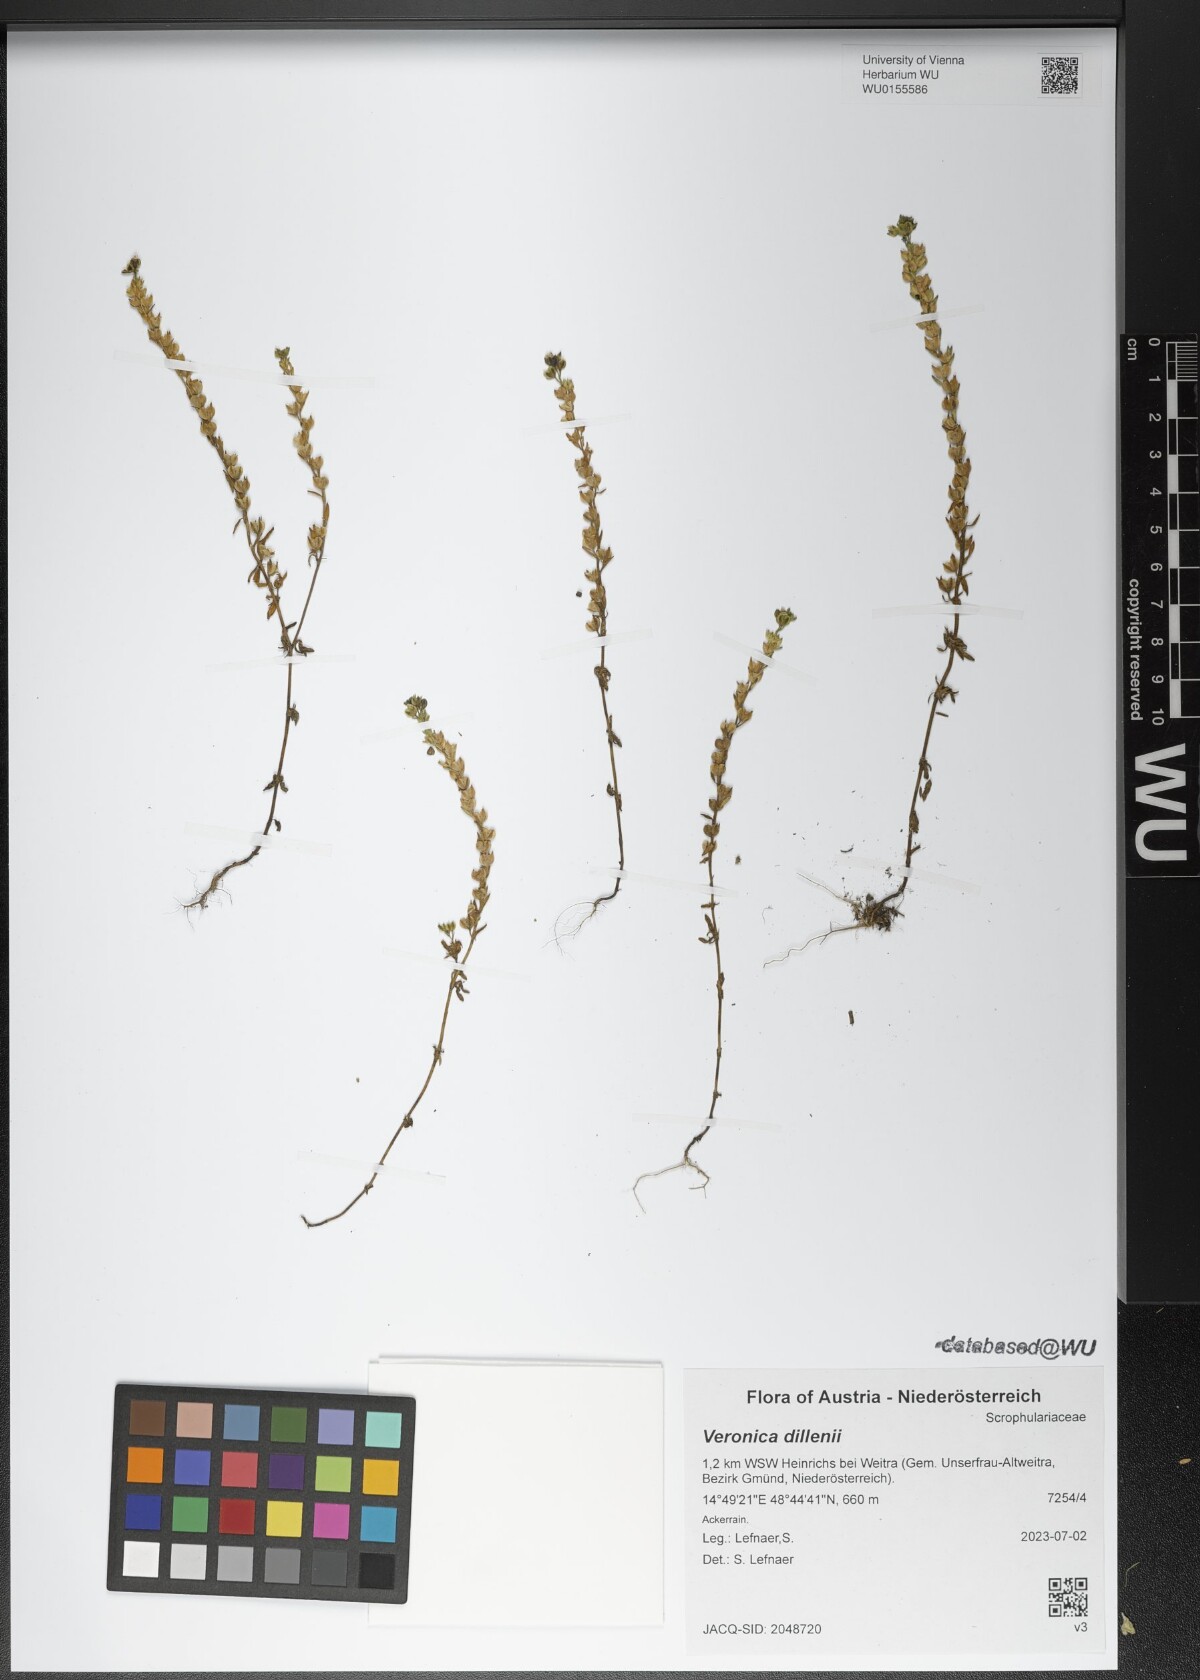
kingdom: Plantae
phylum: Tracheophyta
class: Magnoliopsida
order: Lamiales
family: Plantaginaceae
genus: Veronica
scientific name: Veronica dillenii
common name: Dillenius' speedwell
